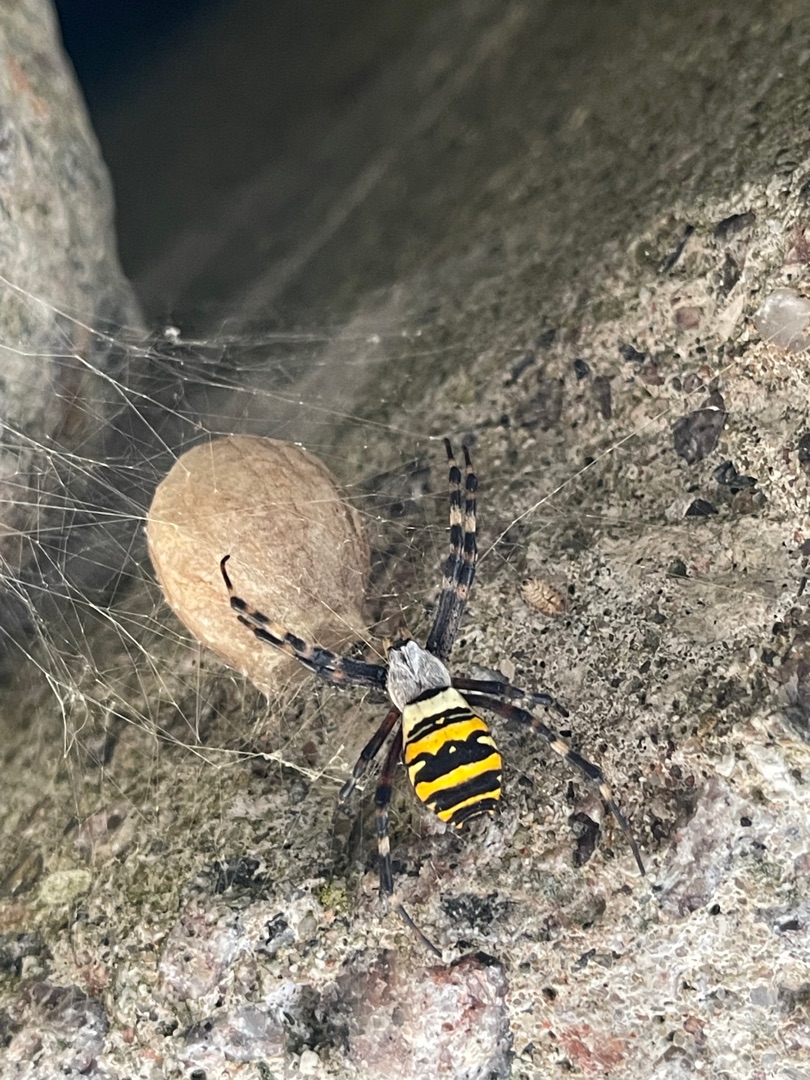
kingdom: Animalia
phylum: Arthropoda
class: Arachnida
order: Araneae
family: Araneidae
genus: Argiope
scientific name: Argiope bruennichi
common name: Hvepseedderkop
